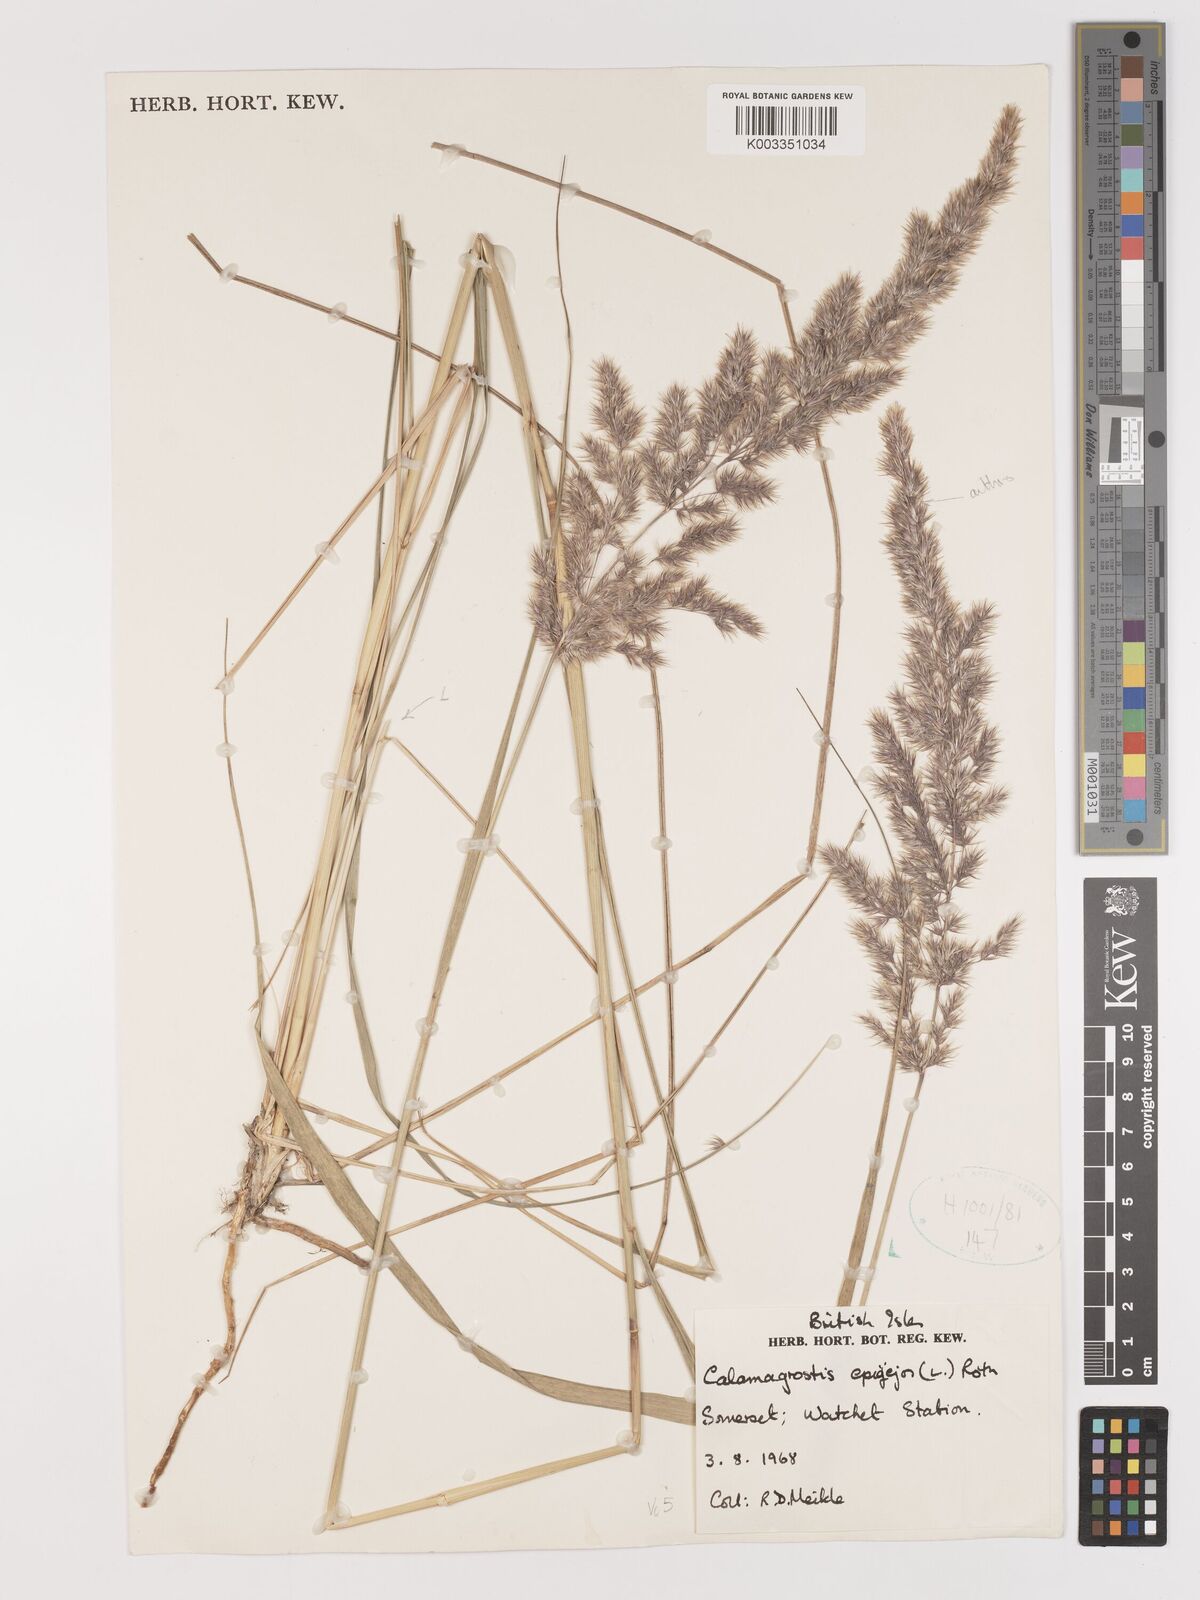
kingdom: Plantae
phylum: Tracheophyta
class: Liliopsida
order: Poales
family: Poaceae
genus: Calamagrostis
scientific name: Calamagrostis epigejos
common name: Wood small-reed
